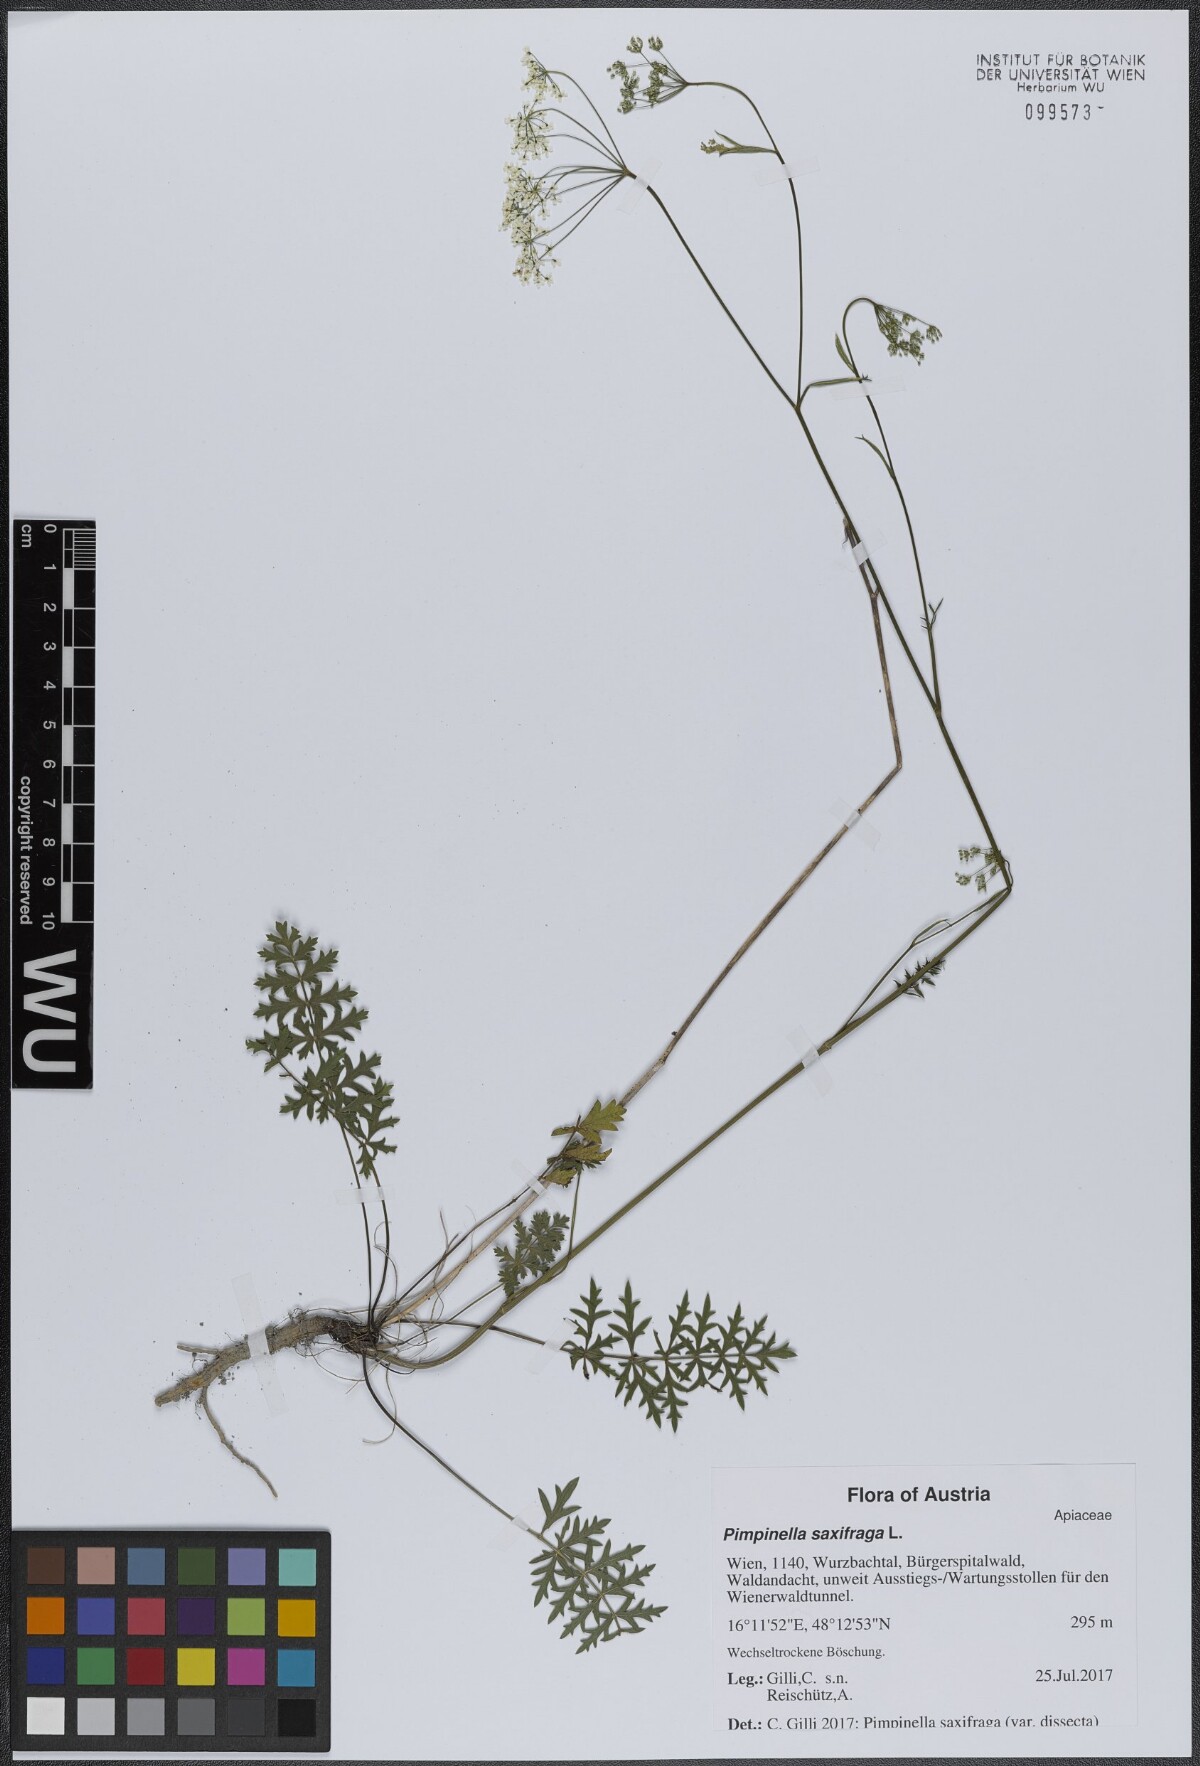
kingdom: Plantae
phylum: Tracheophyta
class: Magnoliopsida
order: Apiales
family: Apiaceae
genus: Pimpinella
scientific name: Pimpinella saxifraga
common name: Burnet-saxifrage
